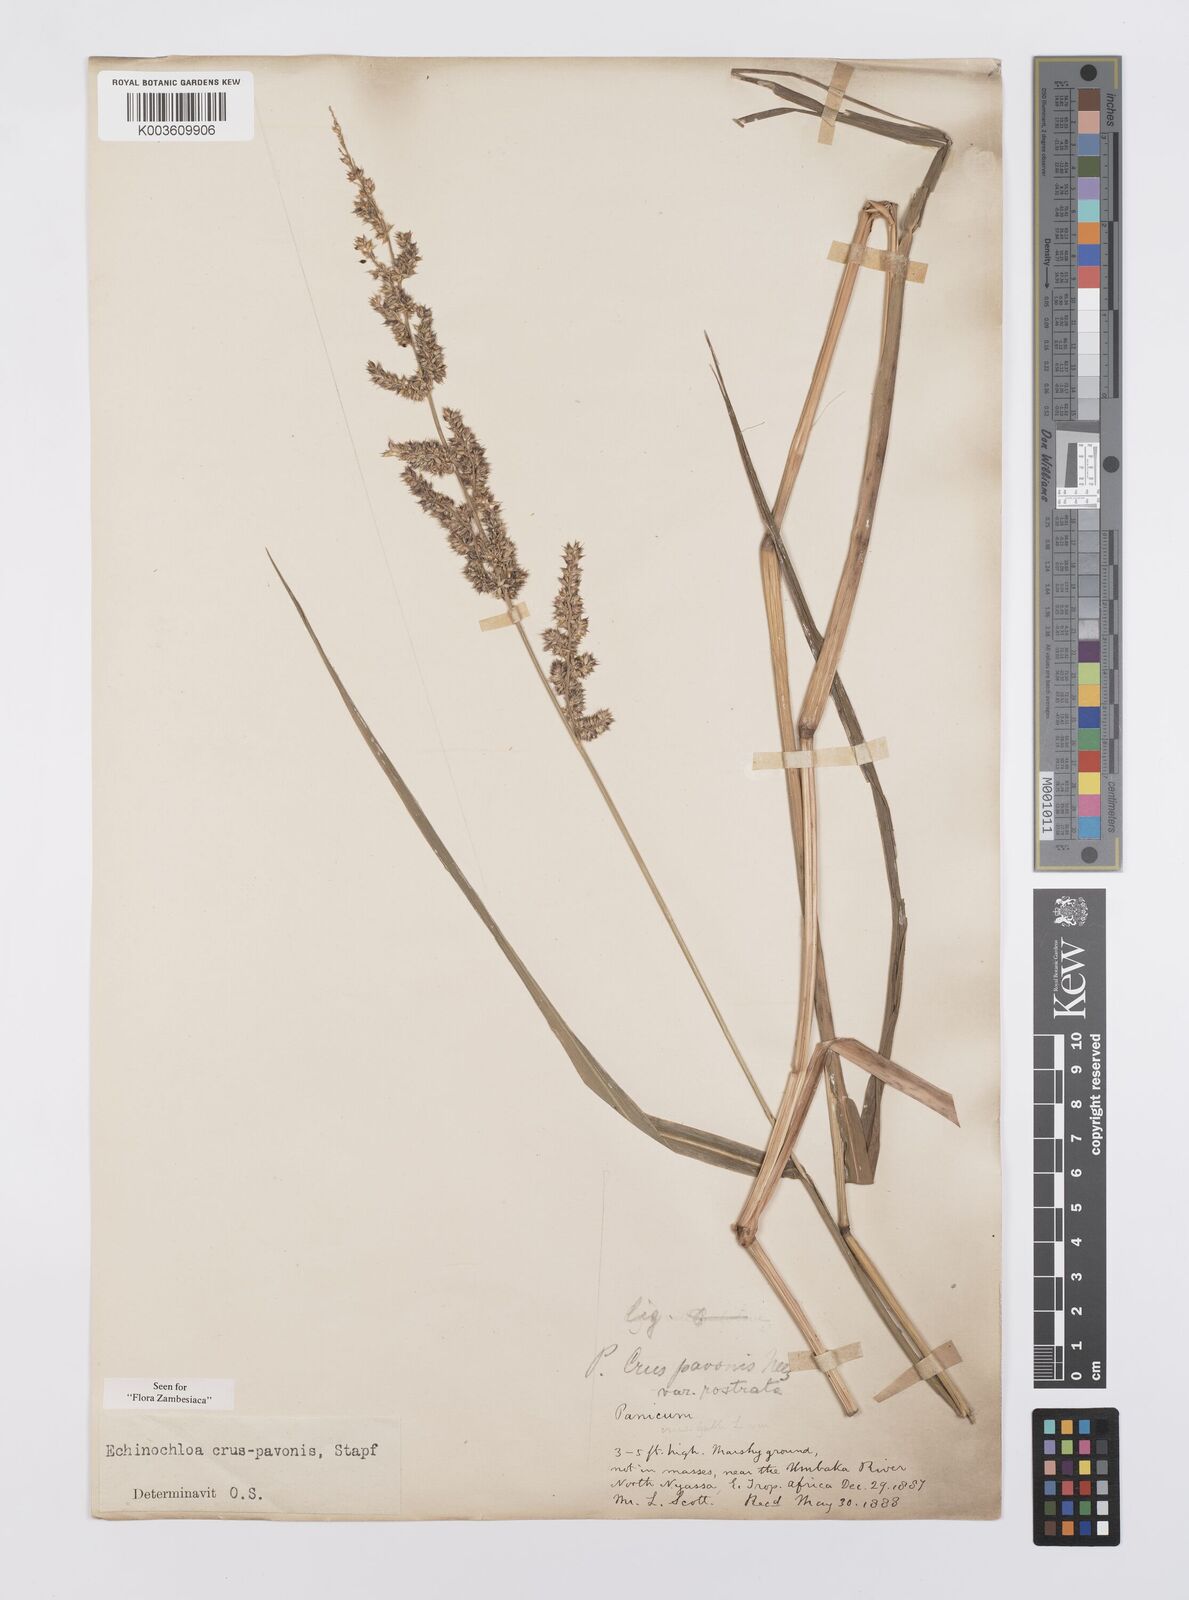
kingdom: Plantae
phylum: Tracheophyta
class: Liliopsida
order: Poales
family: Poaceae
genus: Echinochloa
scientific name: Echinochloa crus-pavonis
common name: Gulf cockspur grass
